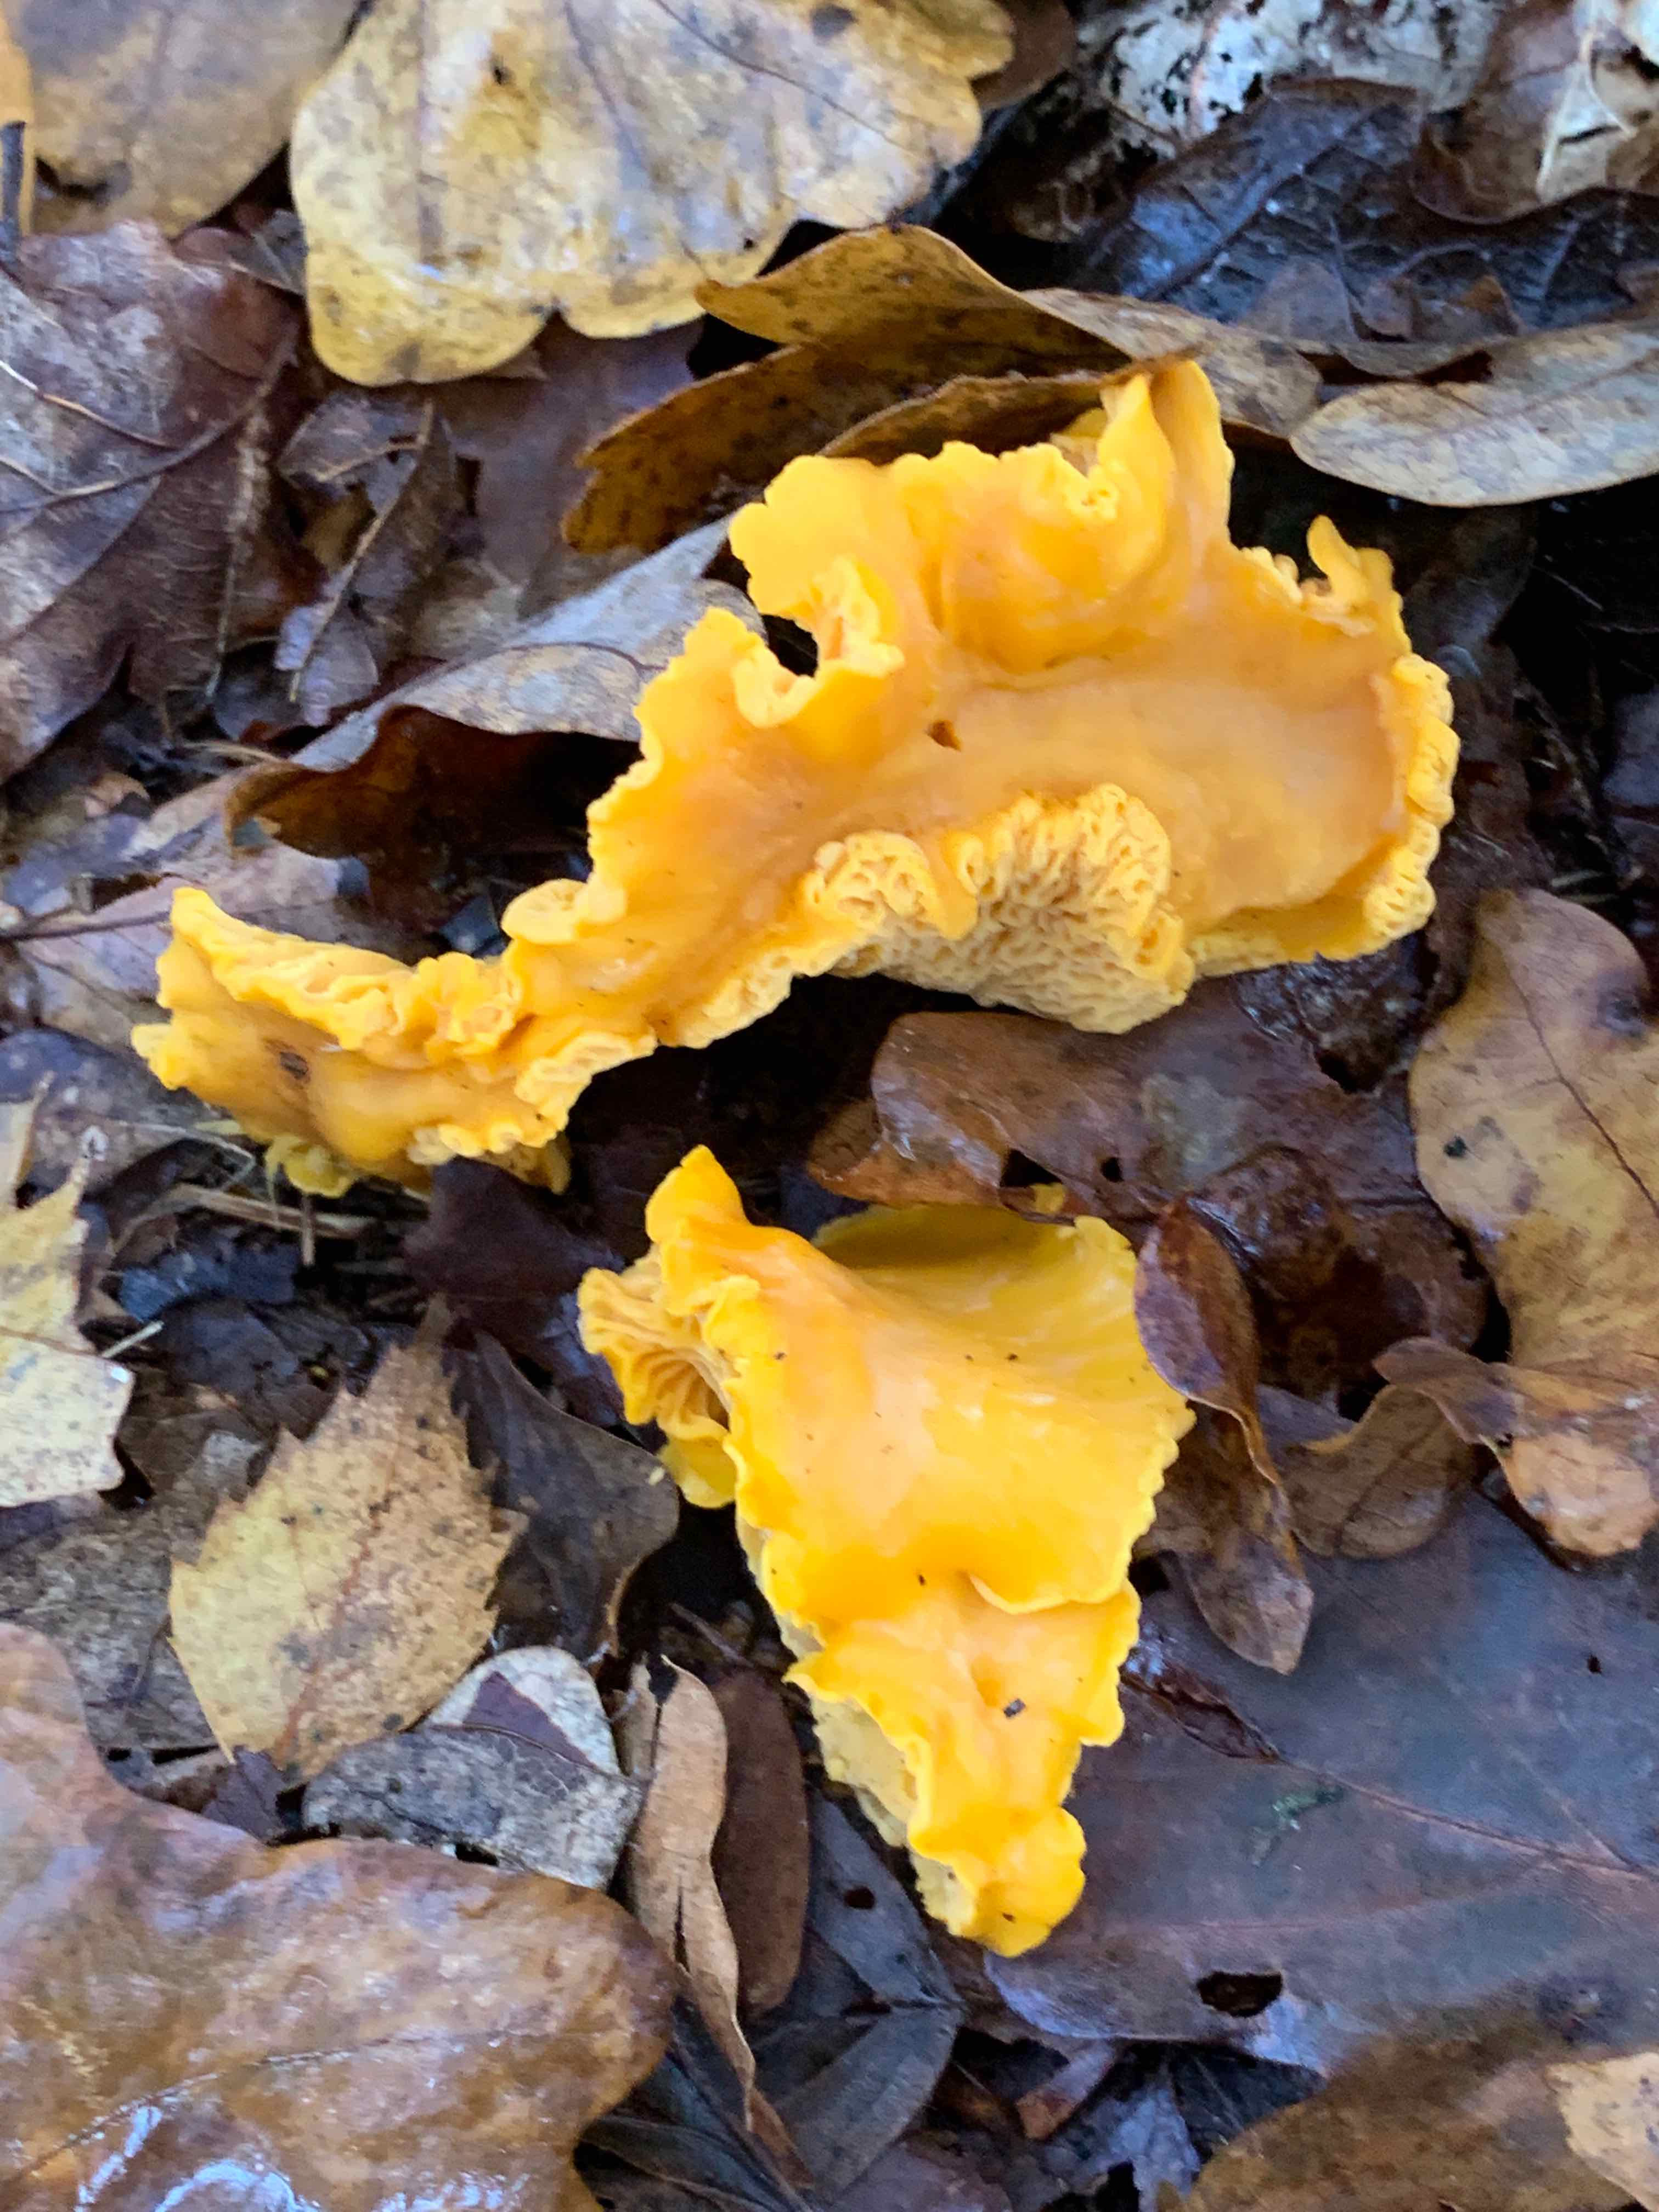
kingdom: Fungi
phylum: Basidiomycota
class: Agaricomycetes
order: Cantharellales
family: Hydnaceae
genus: Cantharellus
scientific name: Cantharellus cibarius
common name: almindelig kantarel
